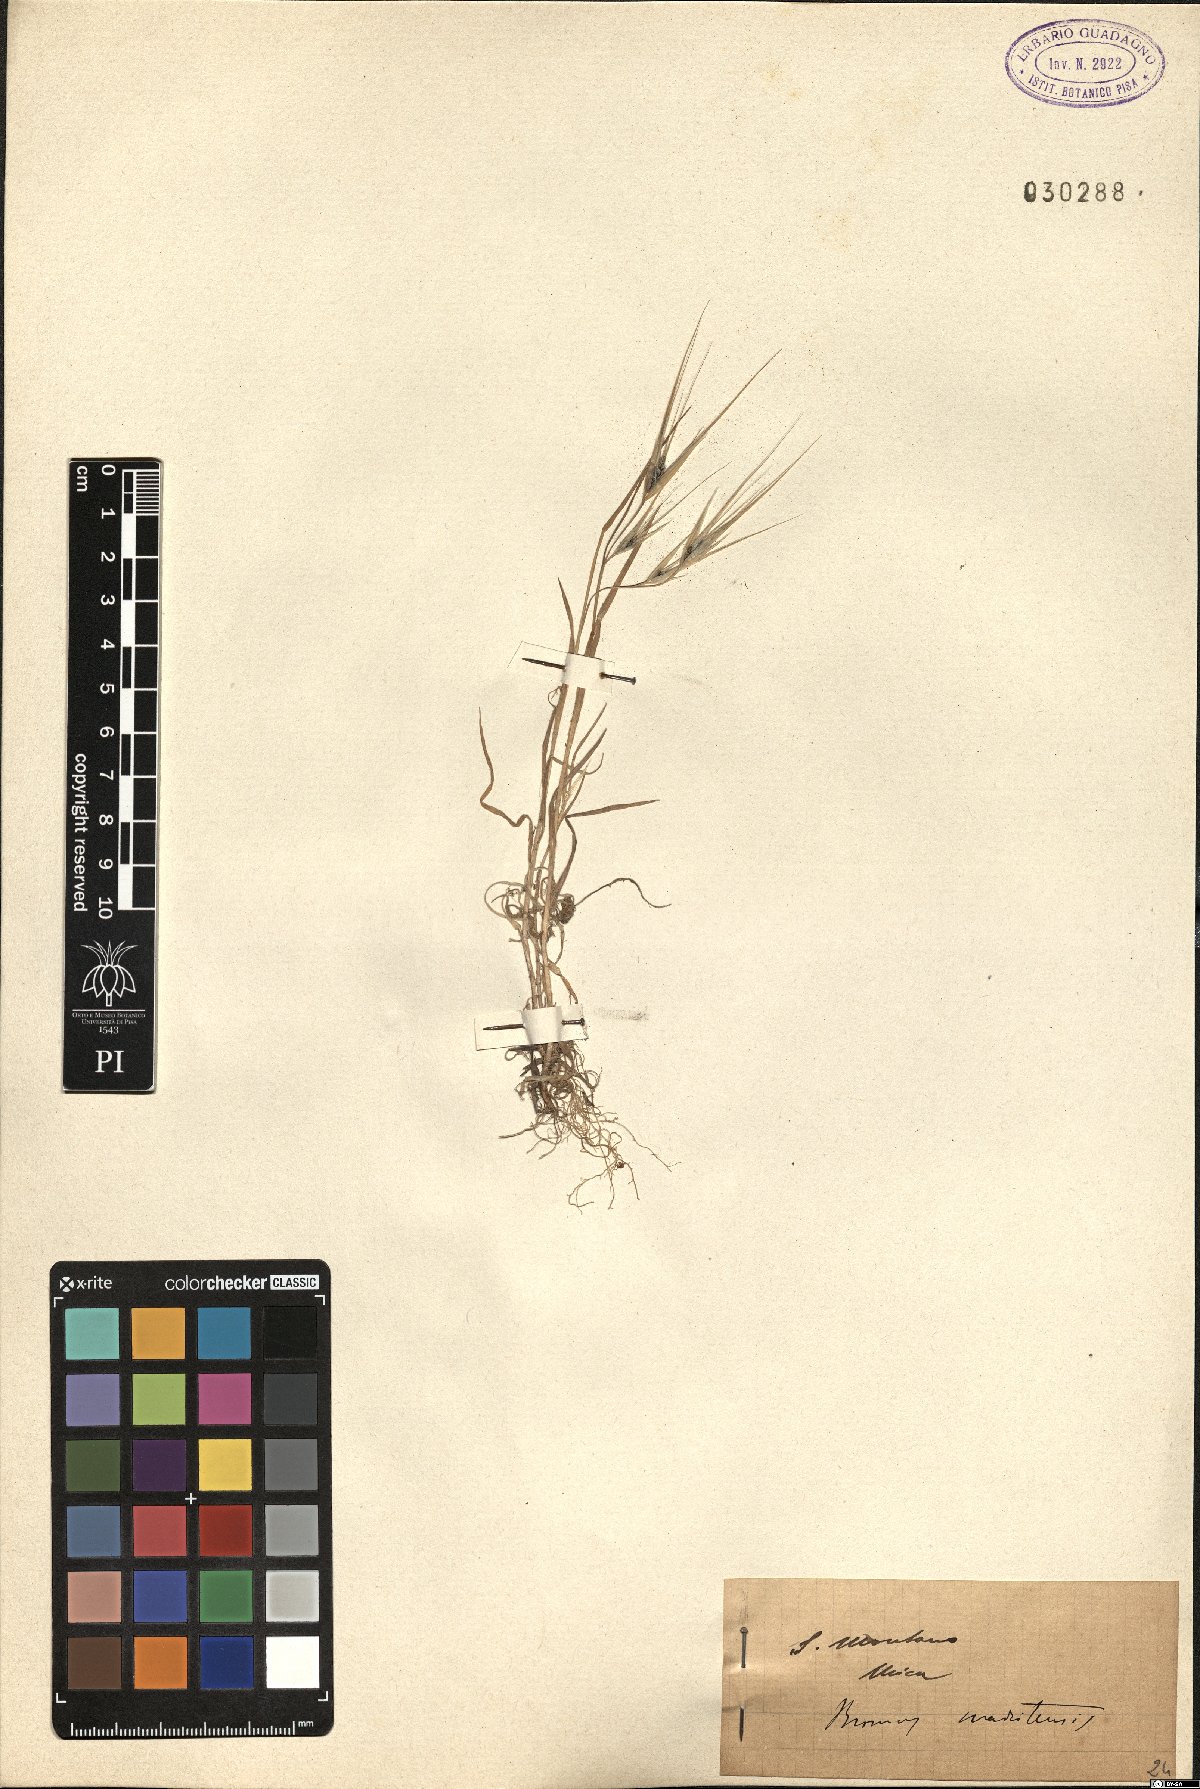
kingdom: Plantae
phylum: Tracheophyta
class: Liliopsida
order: Poales
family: Poaceae
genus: Bromus
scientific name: Bromus madritensis
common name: Compact brome
